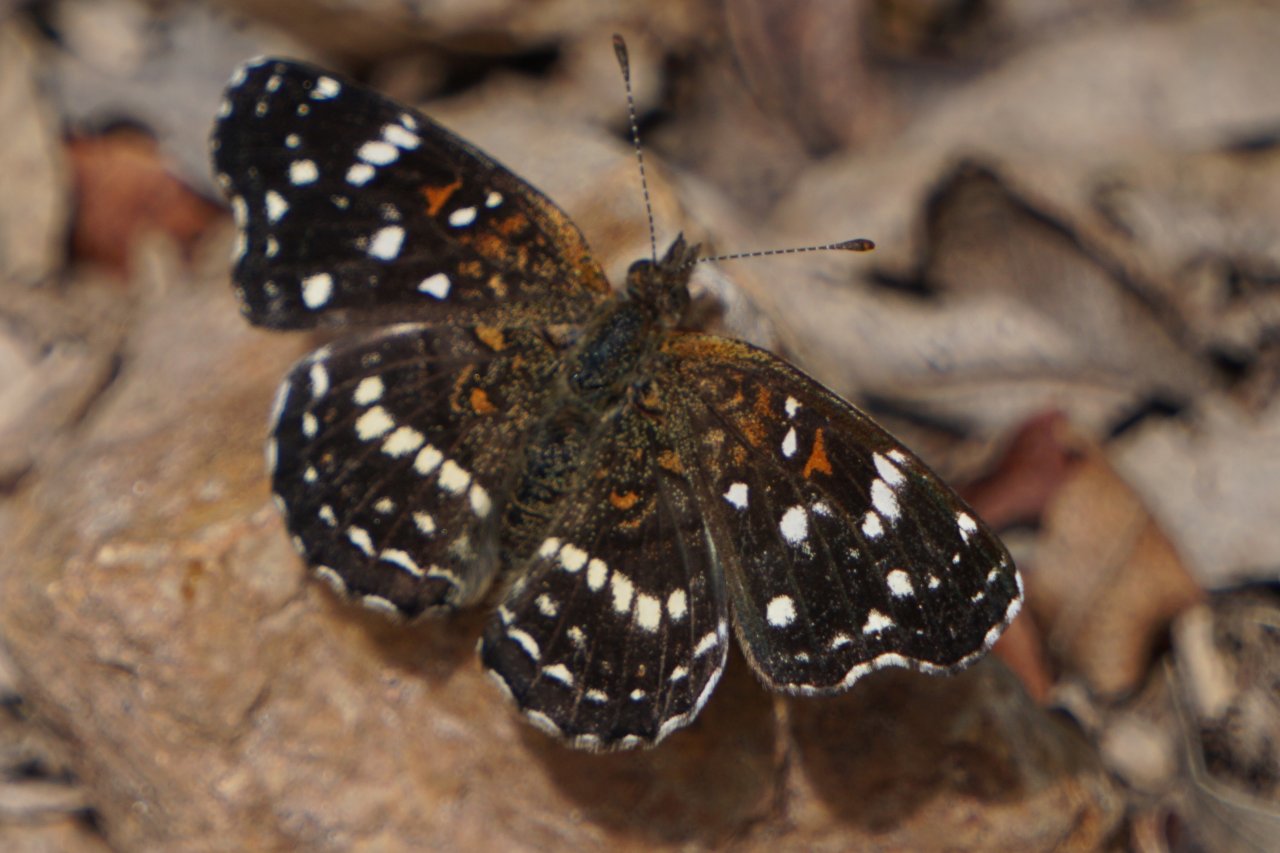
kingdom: Animalia
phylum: Arthropoda
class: Insecta
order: Lepidoptera
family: Nymphalidae
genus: Anthanassa
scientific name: Anthanassa texana
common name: Texan Crescent
